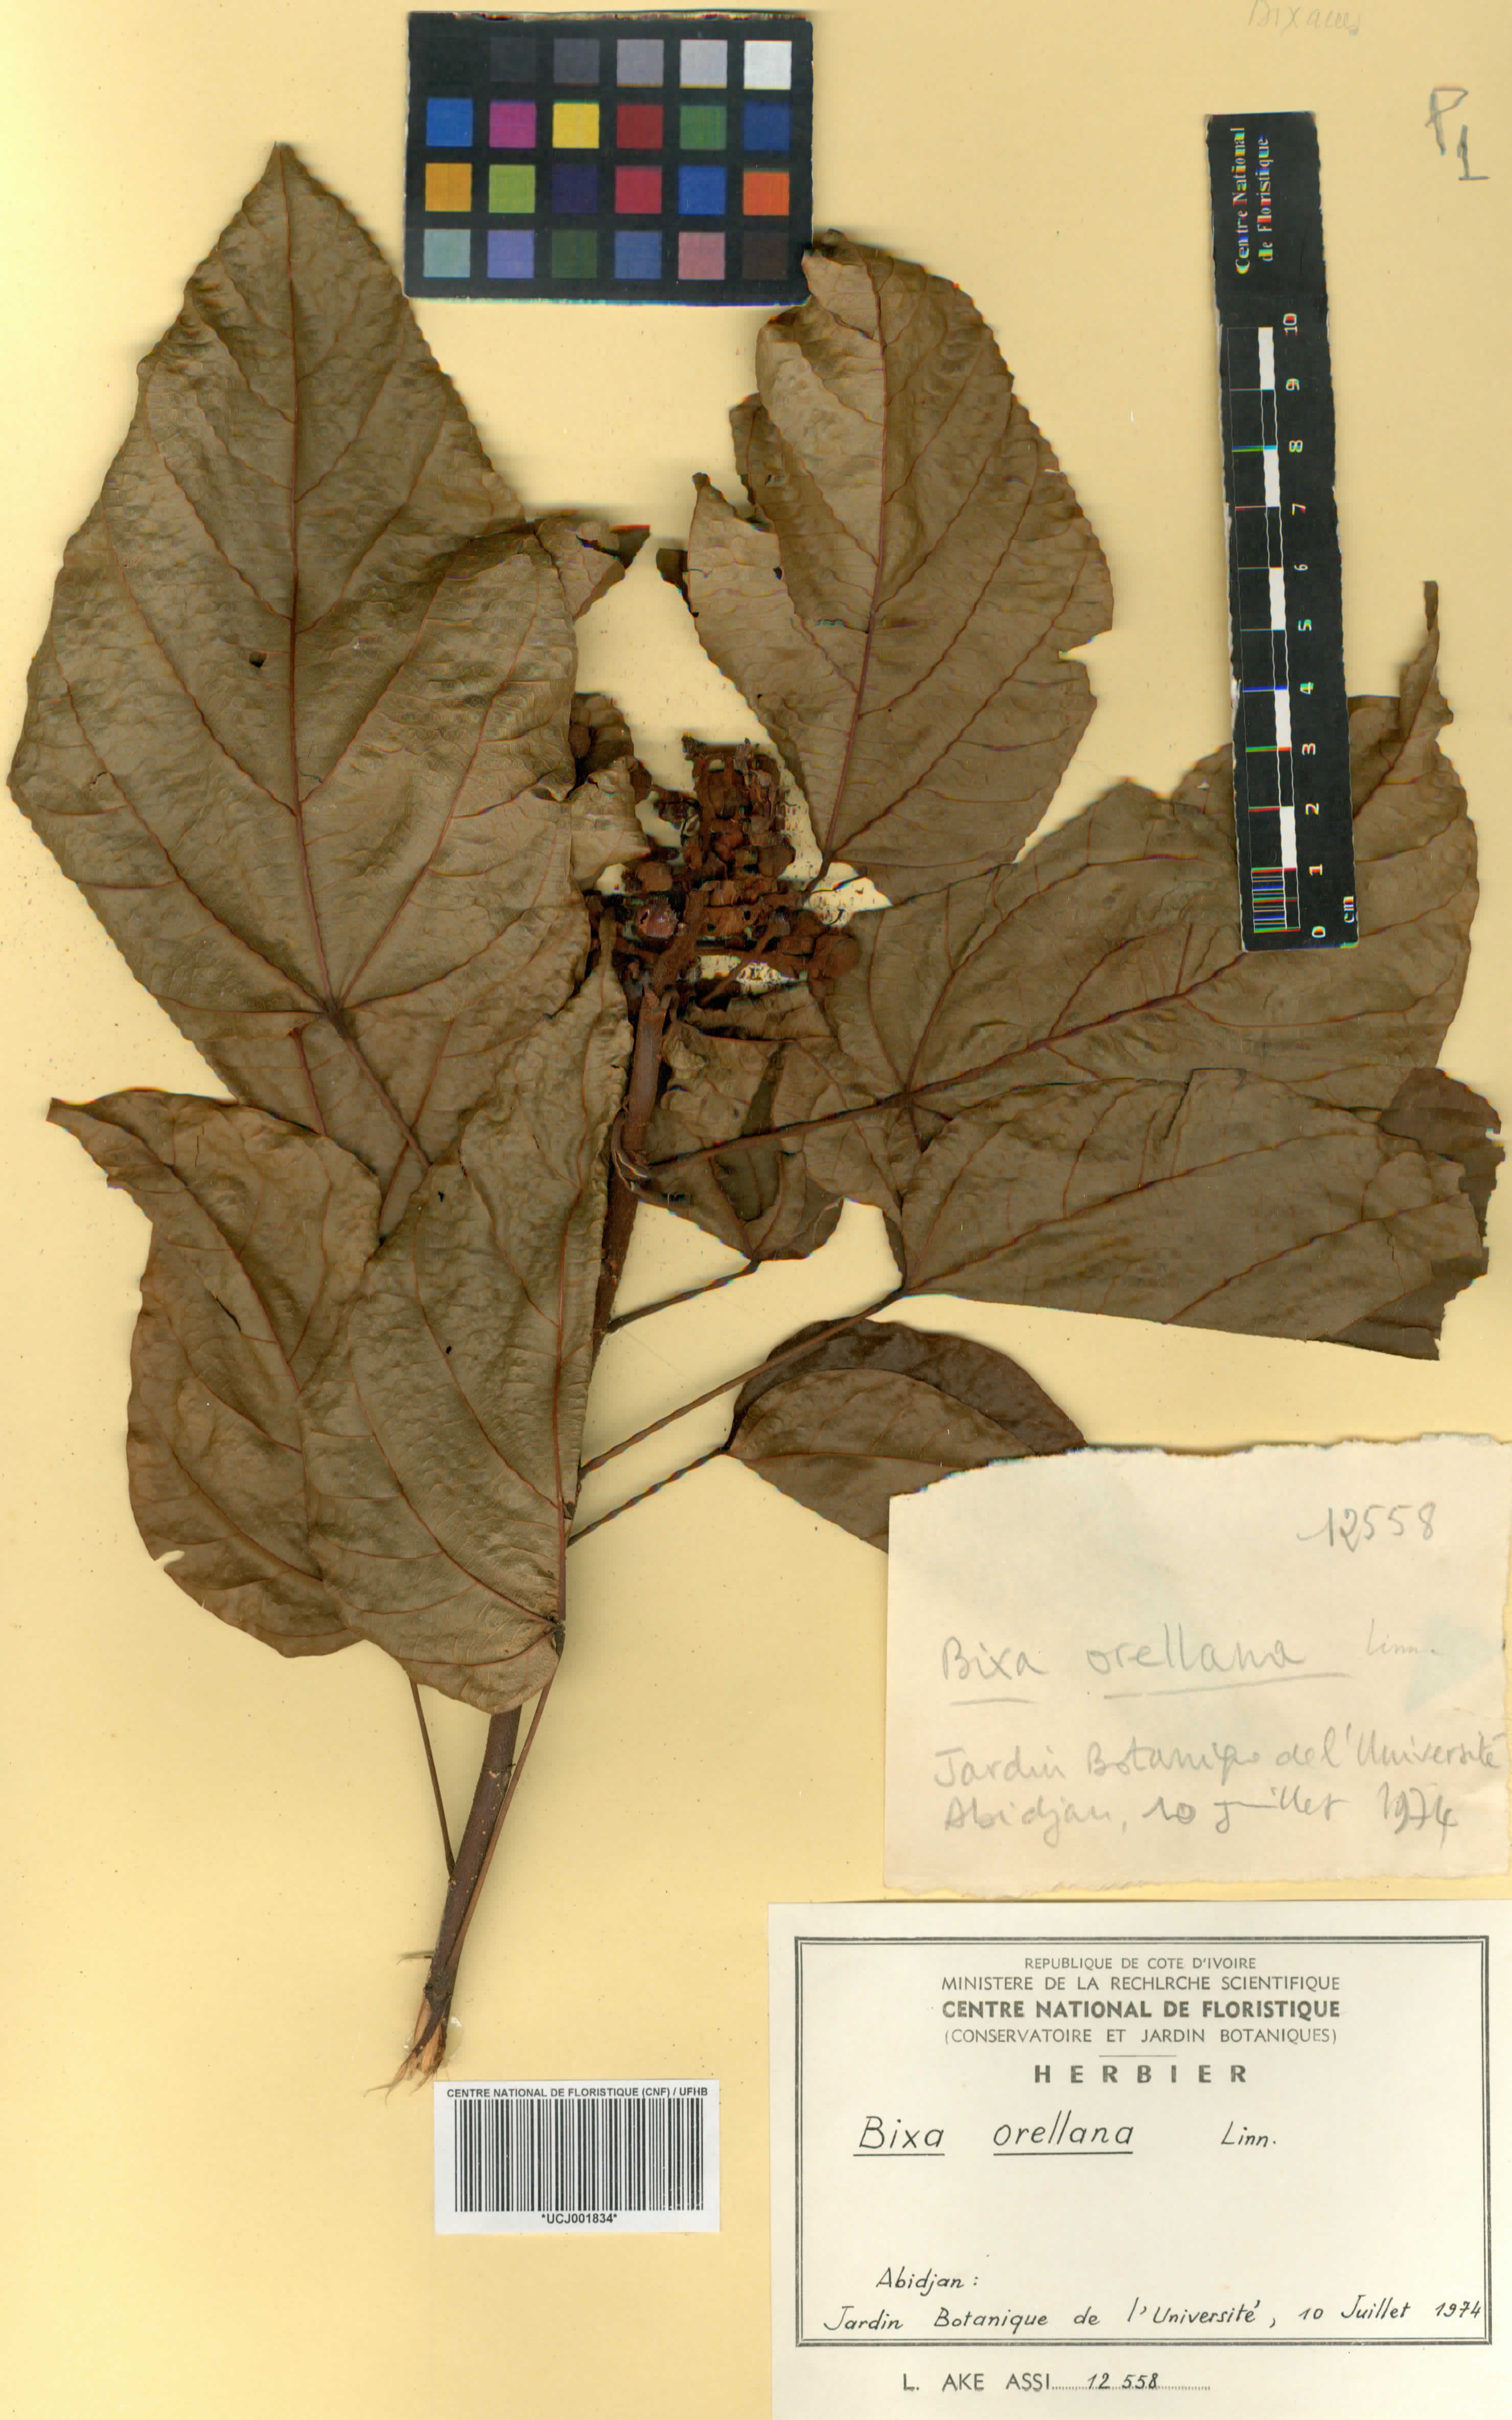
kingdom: Plantae
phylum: Tracheophyta
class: Magnoliopsida
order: Malvales
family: Bixaceae
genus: Bixa
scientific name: Bixa orellana
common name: Lipsticktree
